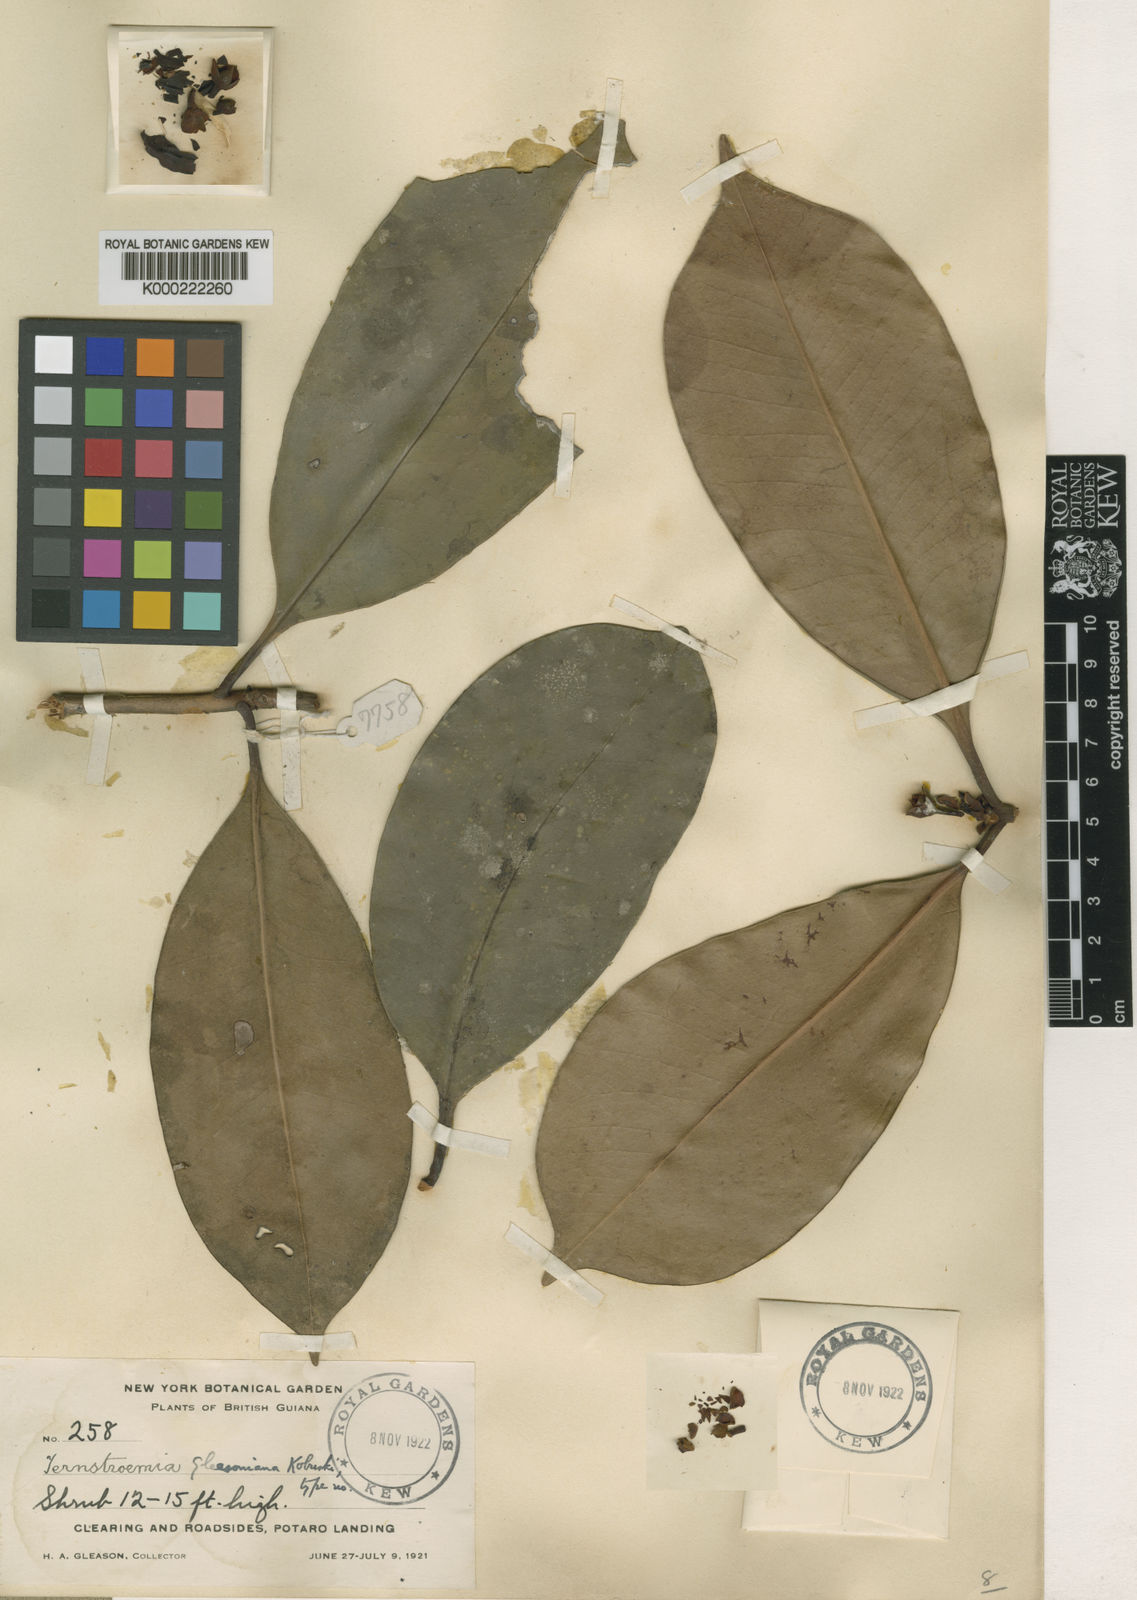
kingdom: Plantae
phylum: Tracheophyta
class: Magnoliopsida
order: Ericales
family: Pentaphylacaceae
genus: Ternstroemia
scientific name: Ternstroemia gleasoniana
